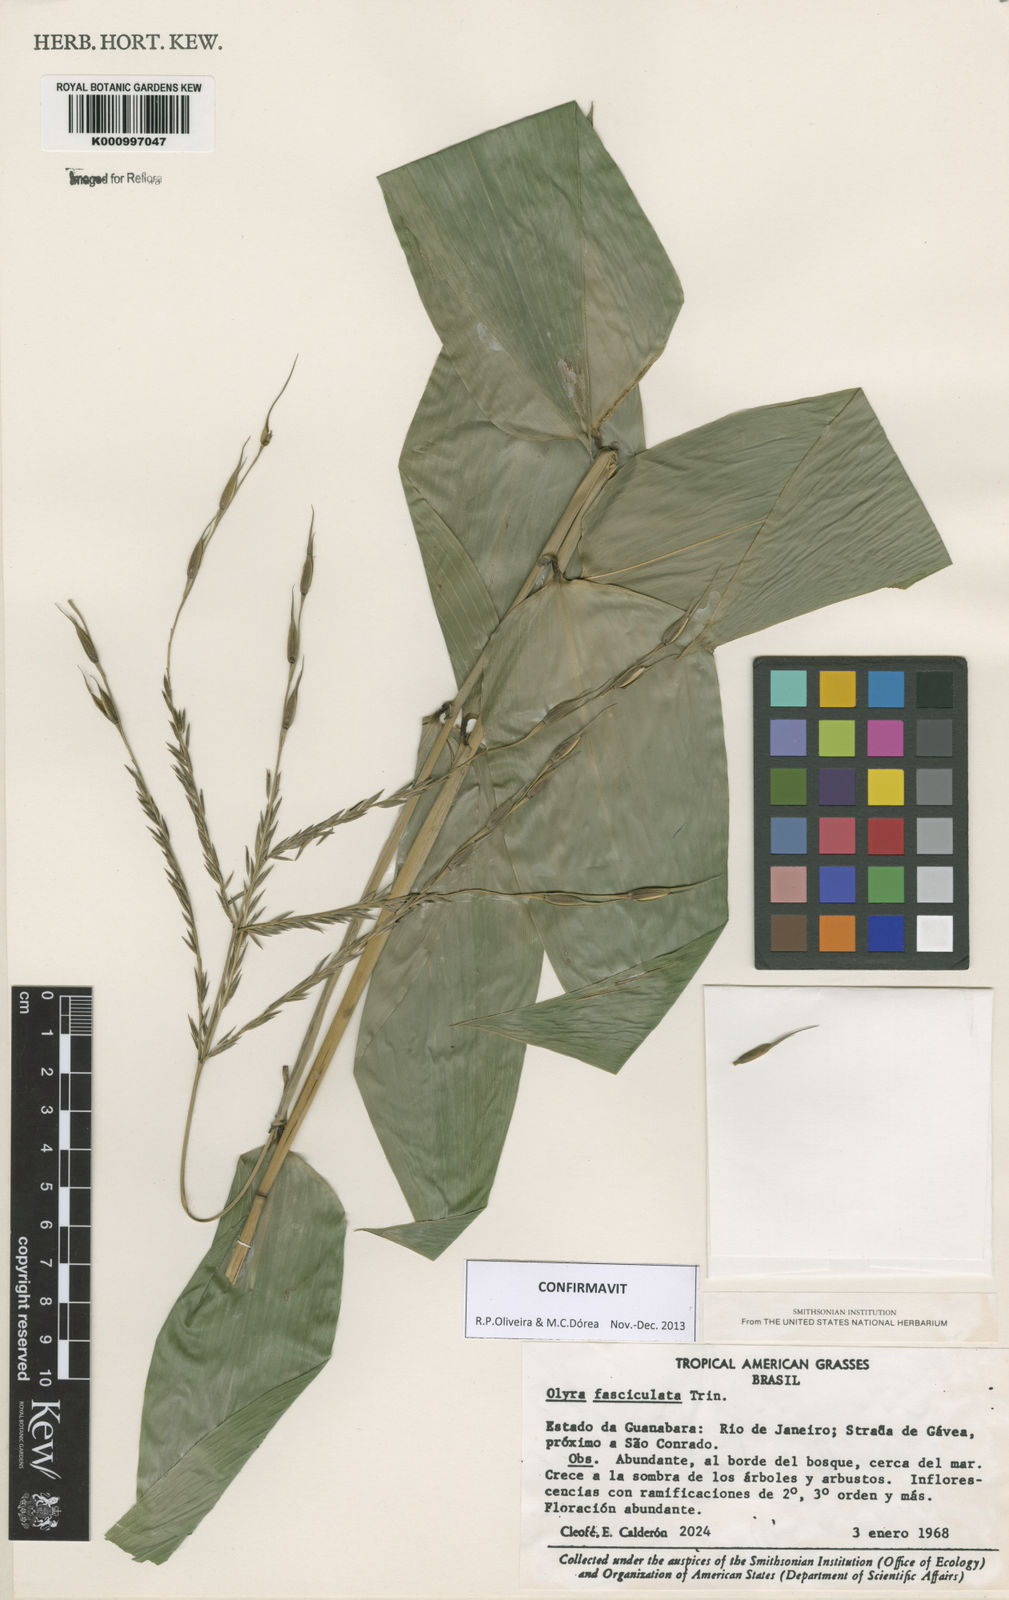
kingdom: Plantae
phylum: Tracheophyta
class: Liliopsida
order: Poales
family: Poaceae
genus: Olyra
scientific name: Olyra fasciculata
